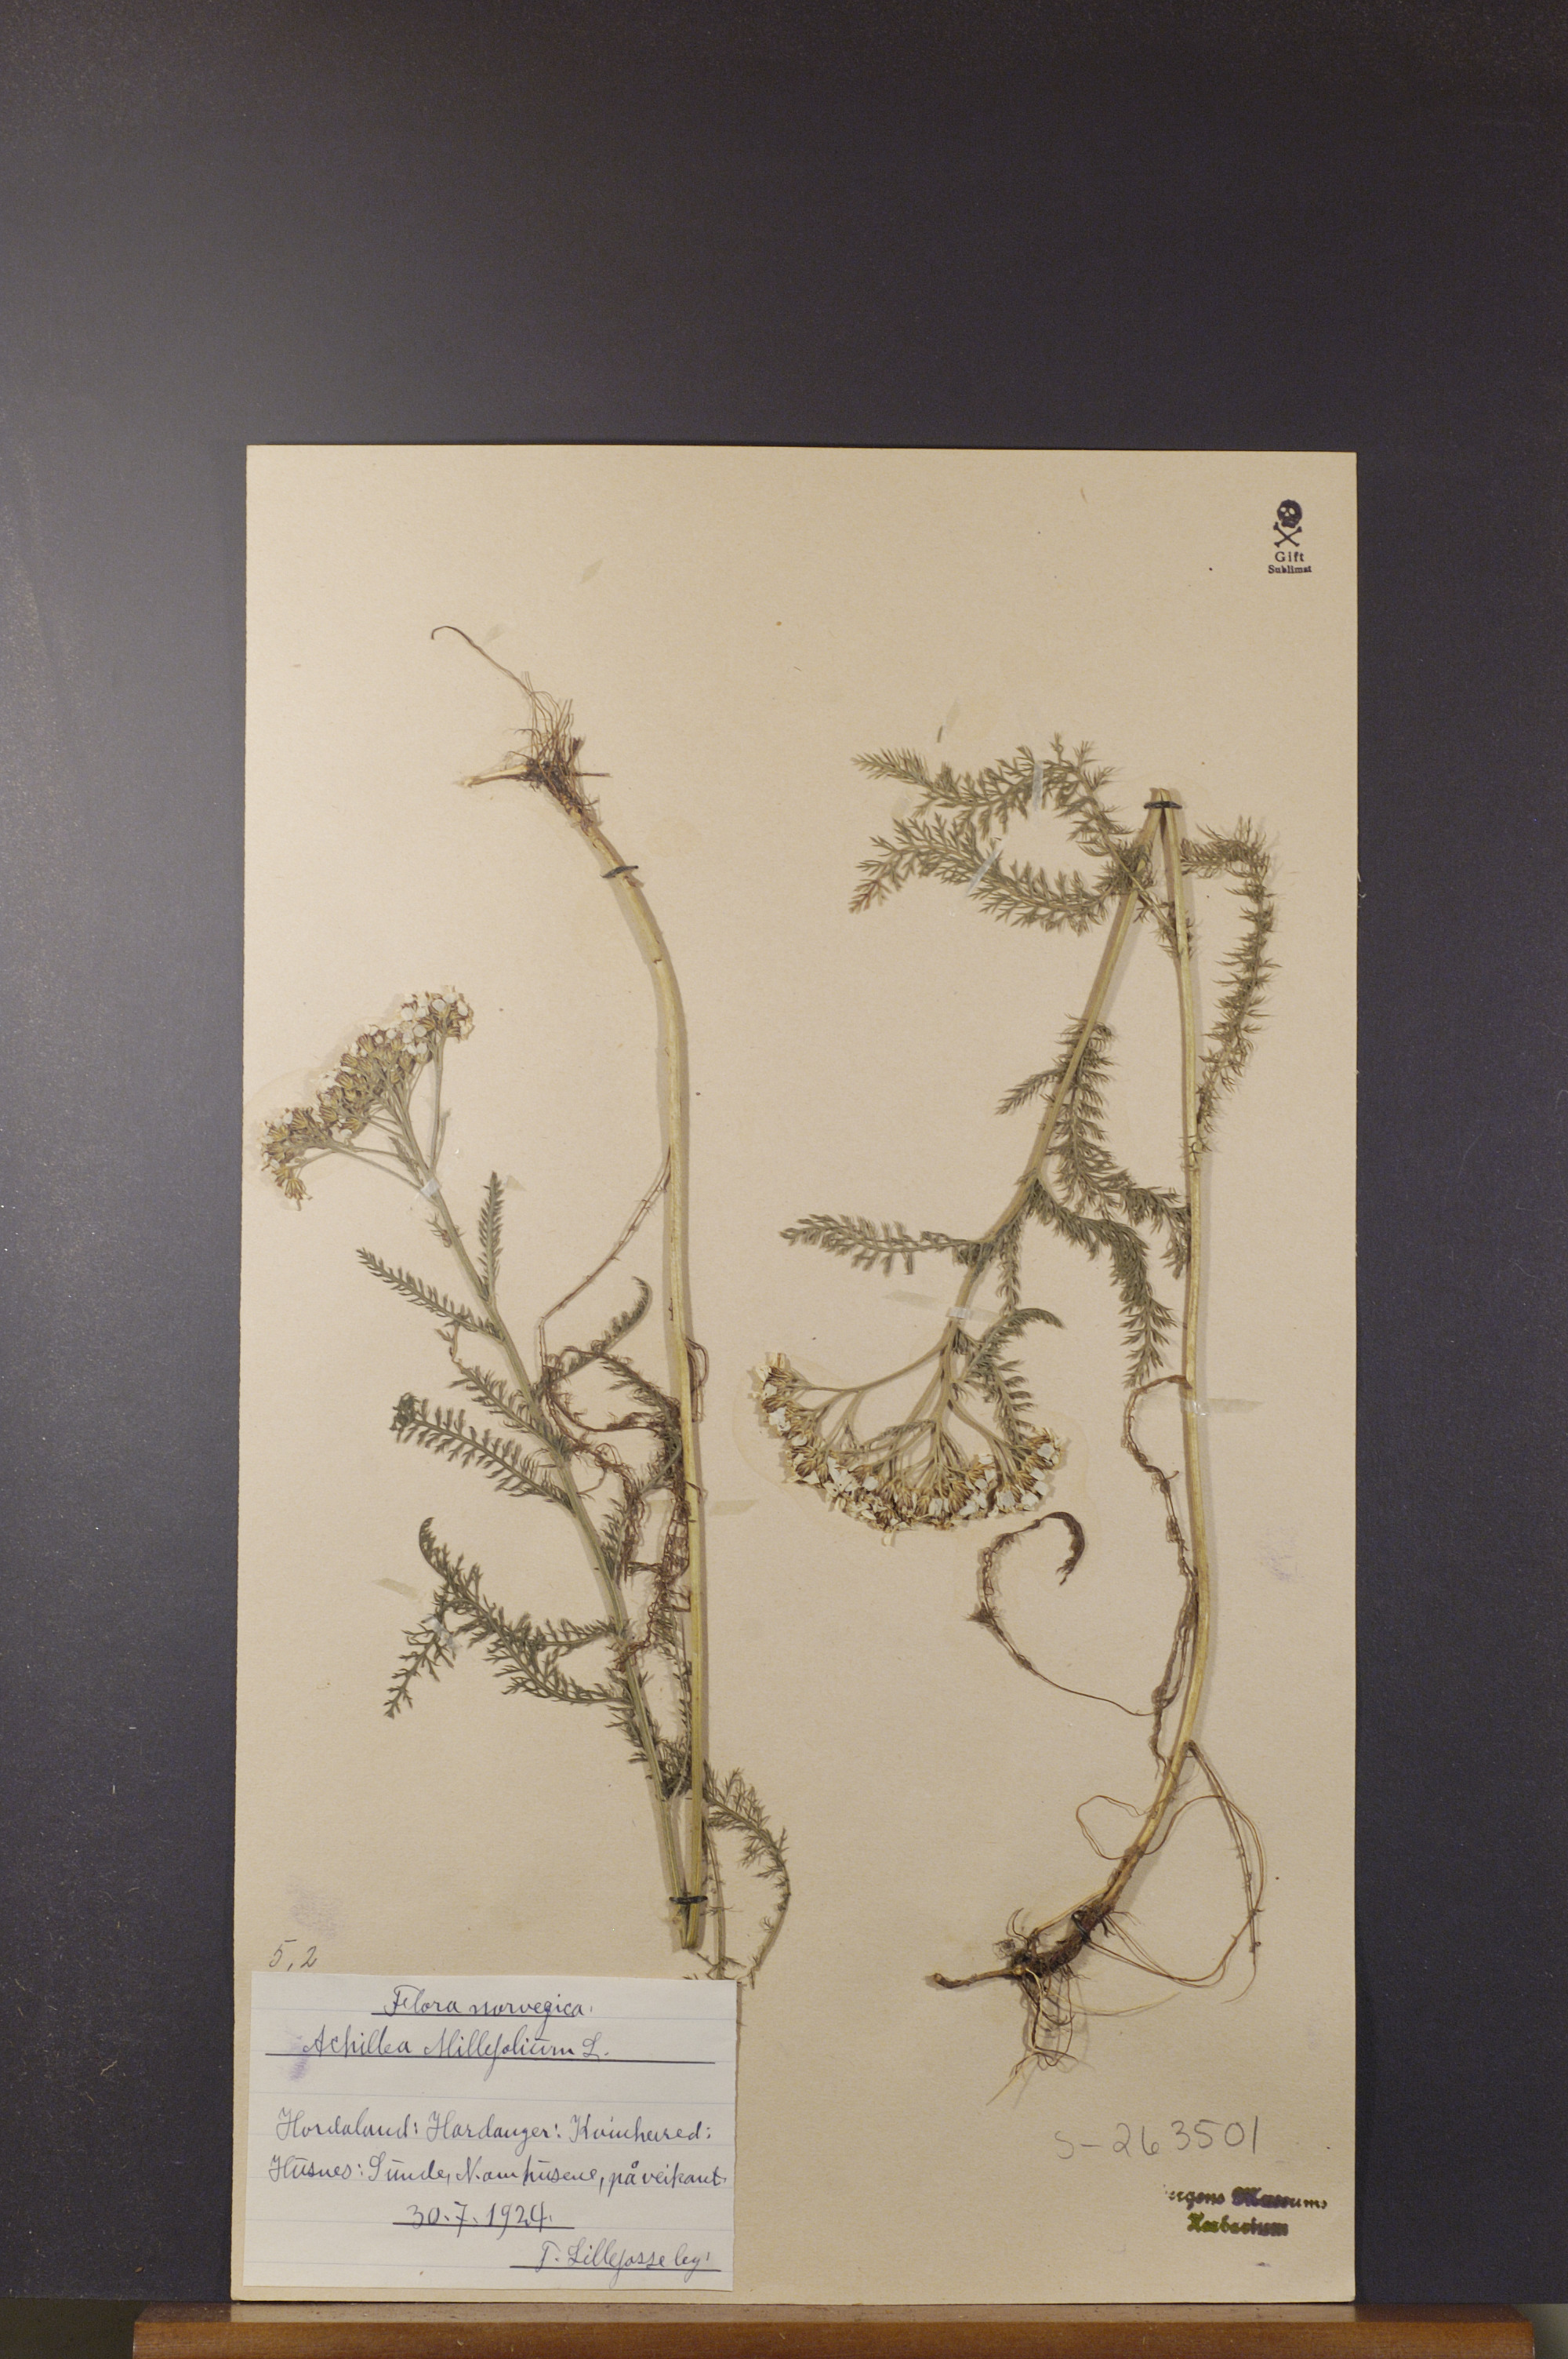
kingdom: Plantae
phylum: Tracheophyta
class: Magnoliopsida
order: Asterales
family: Asteraceae
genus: Achillea
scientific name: Achillea millefolium
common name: Yarrow
